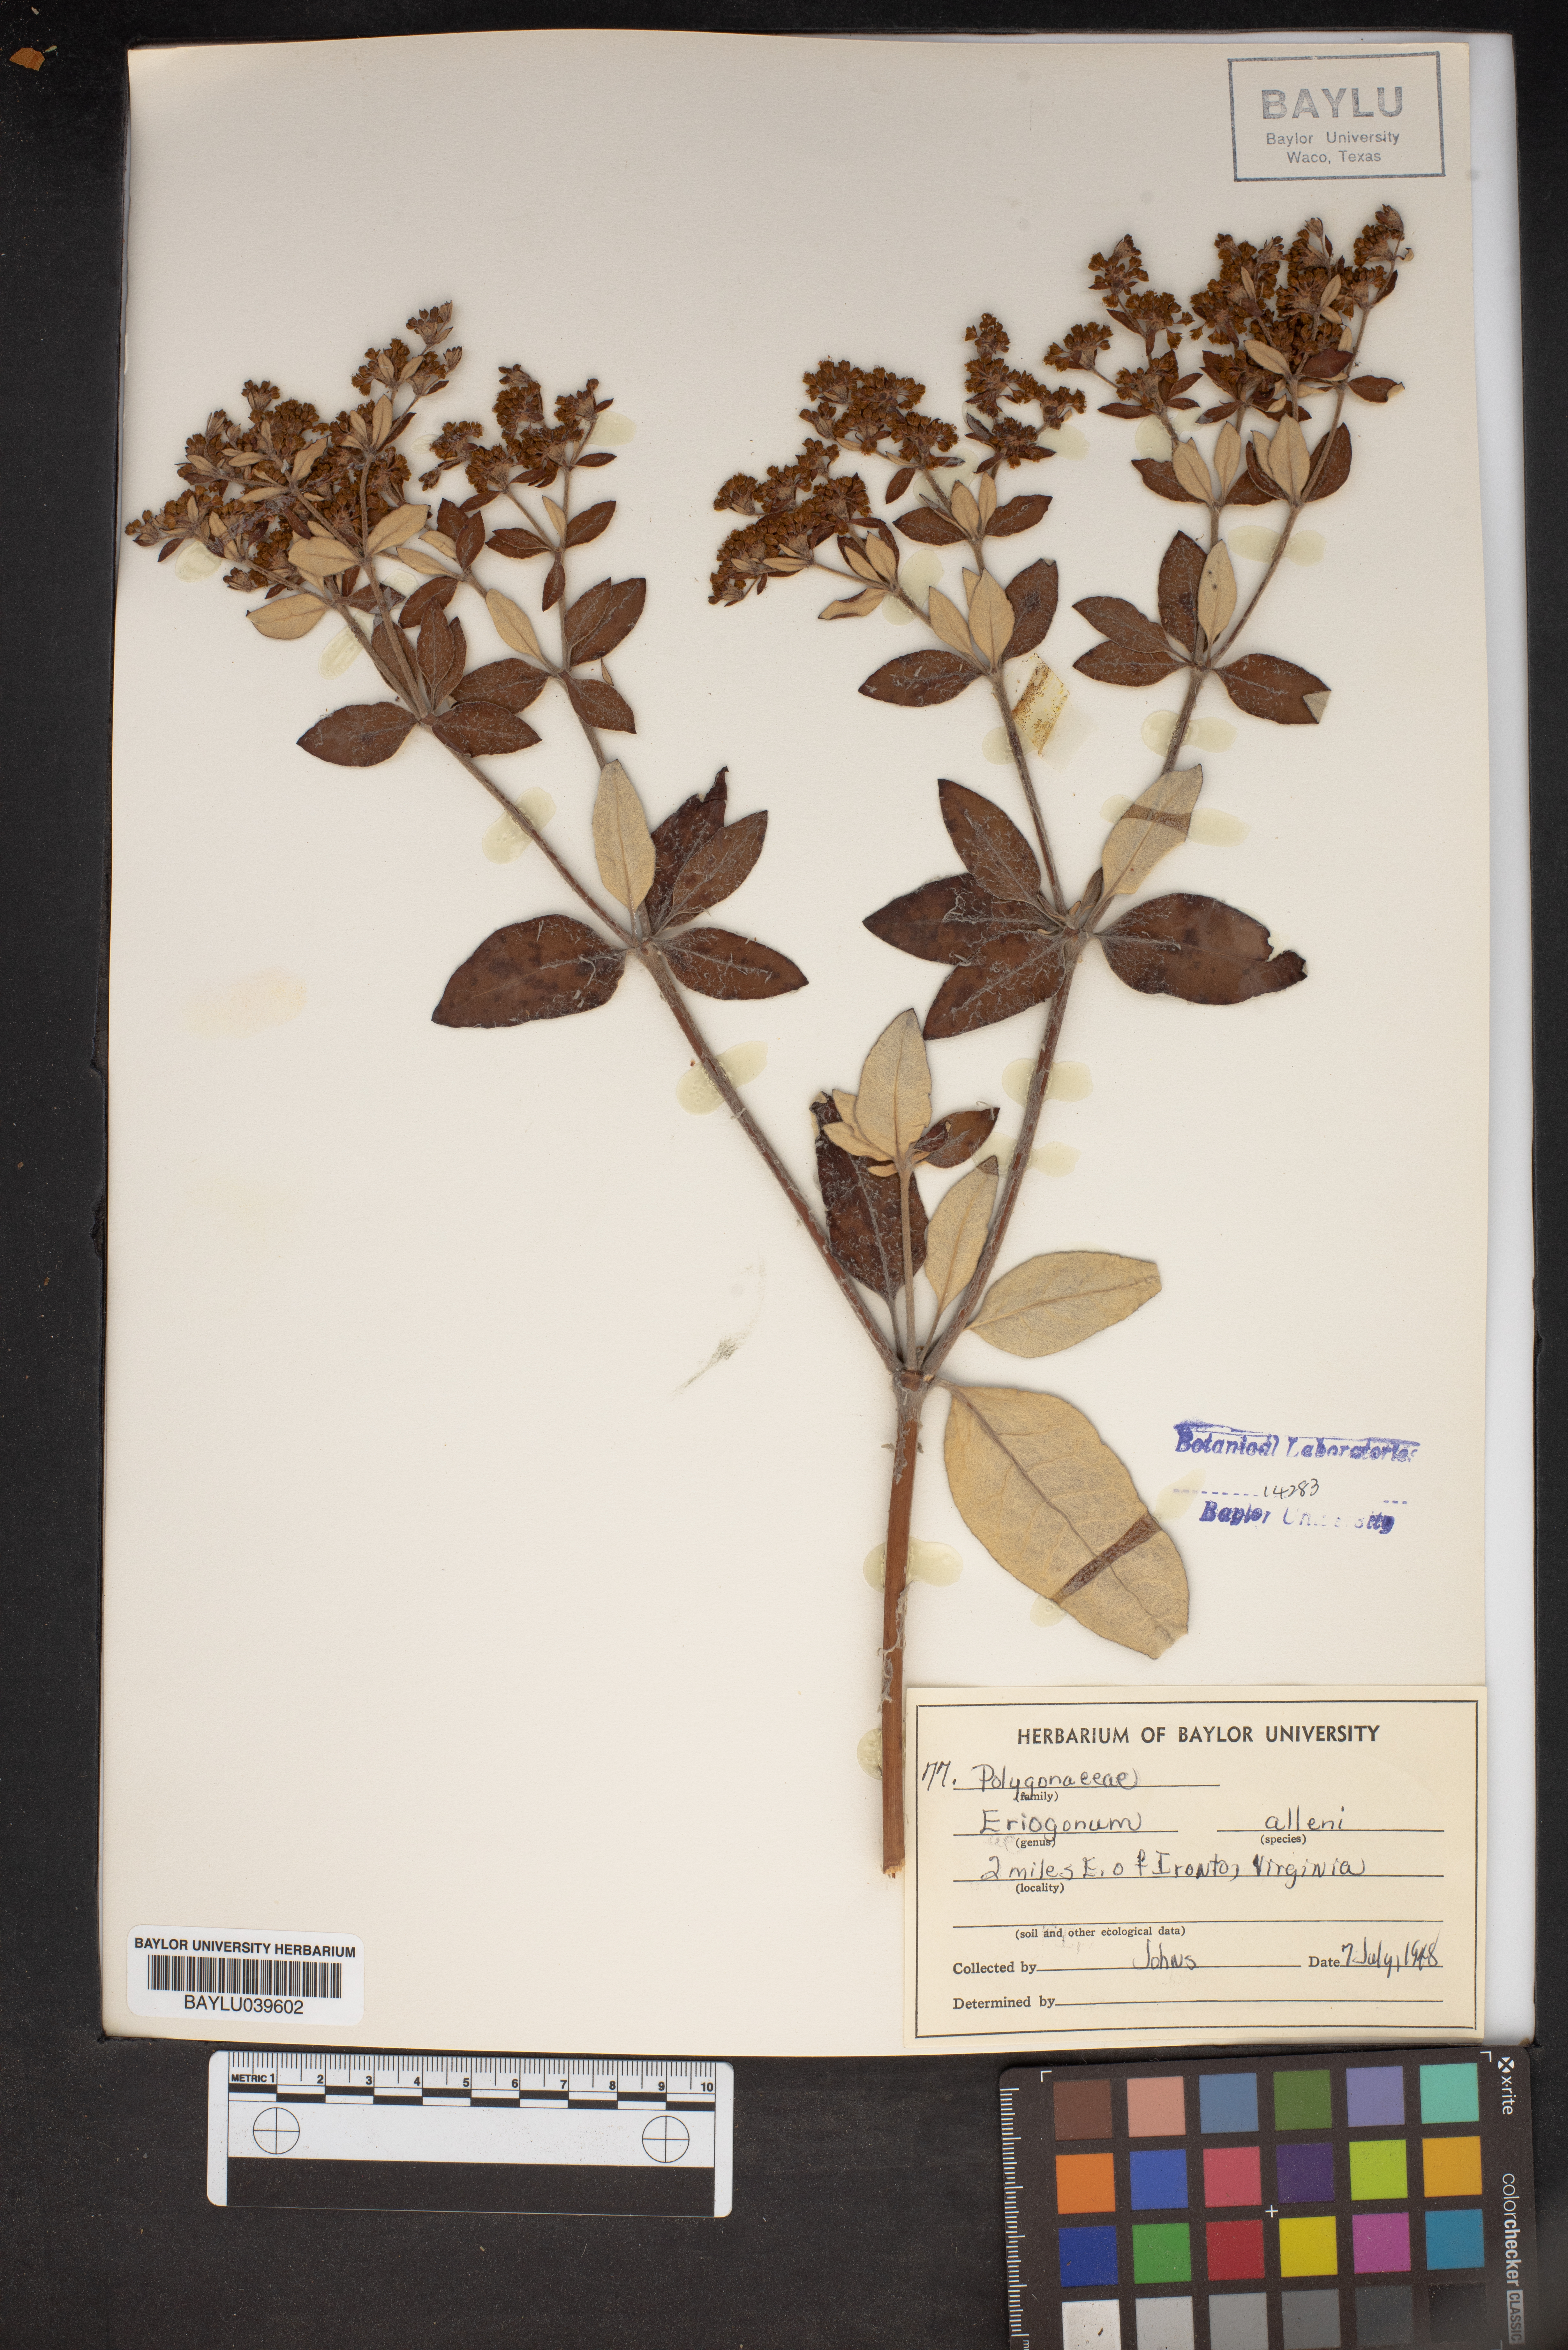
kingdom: Plantae
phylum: Tracheophyta
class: Magnoliopsida
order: Caryophyllales
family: Polygonaceae
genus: Eriogonum
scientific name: Eriogonum allenii
